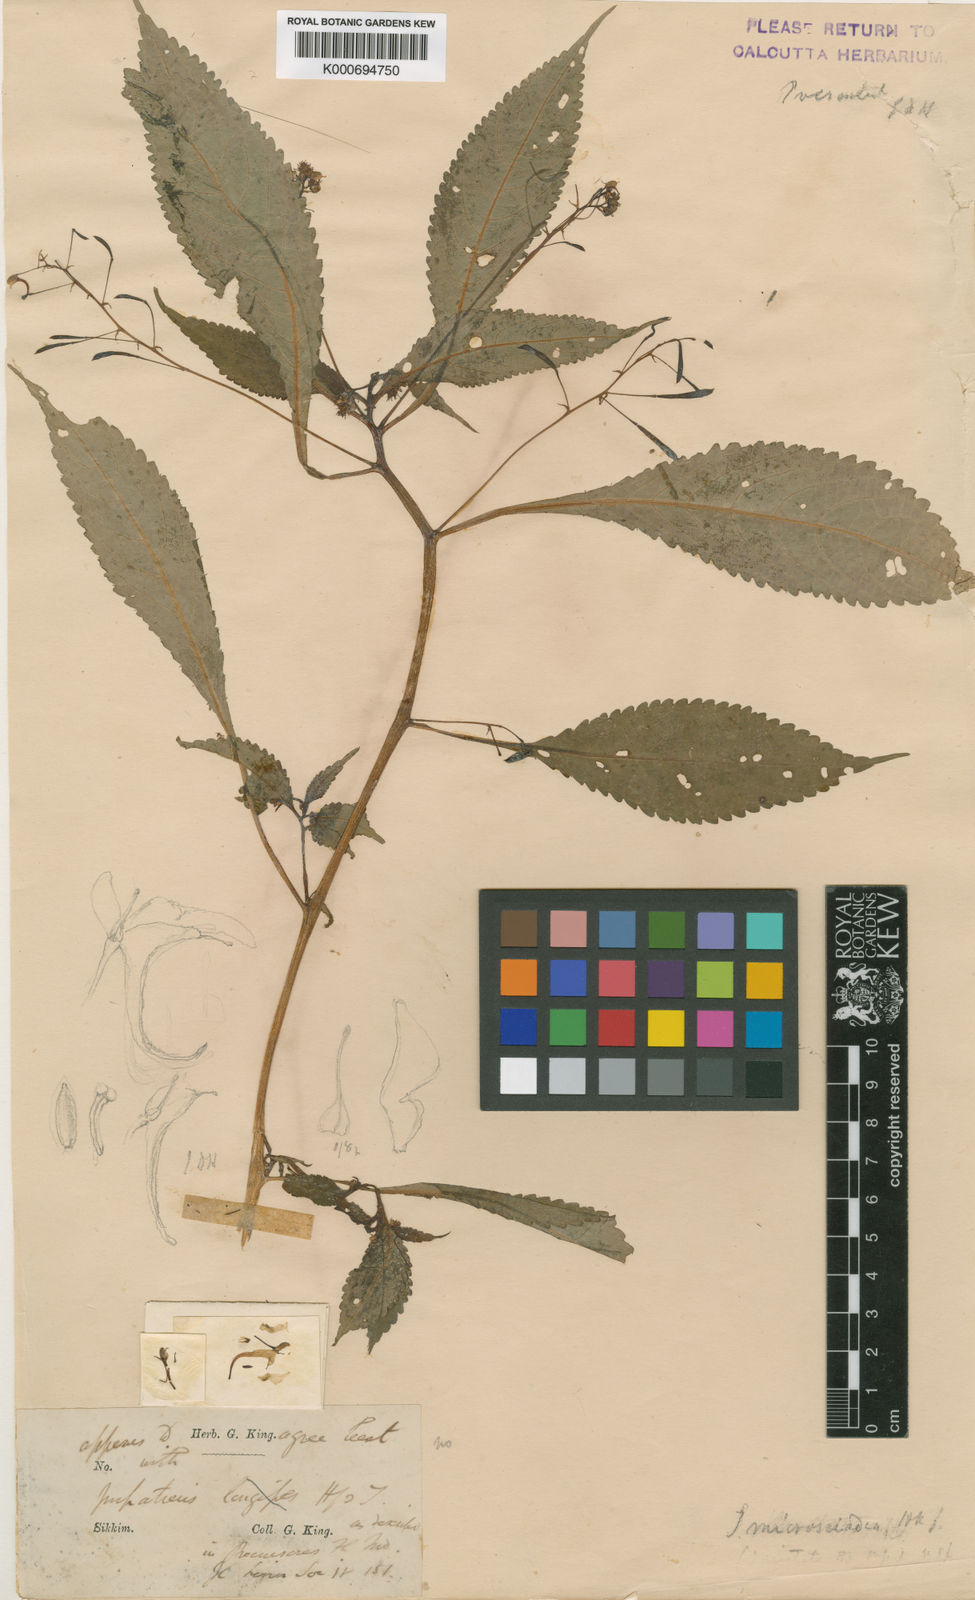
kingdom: Plantae
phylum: Tracheophyta
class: Magnoliopsida
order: Ericales
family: Balsaminaceae
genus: Impatiens
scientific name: Impatiens racemulosa
